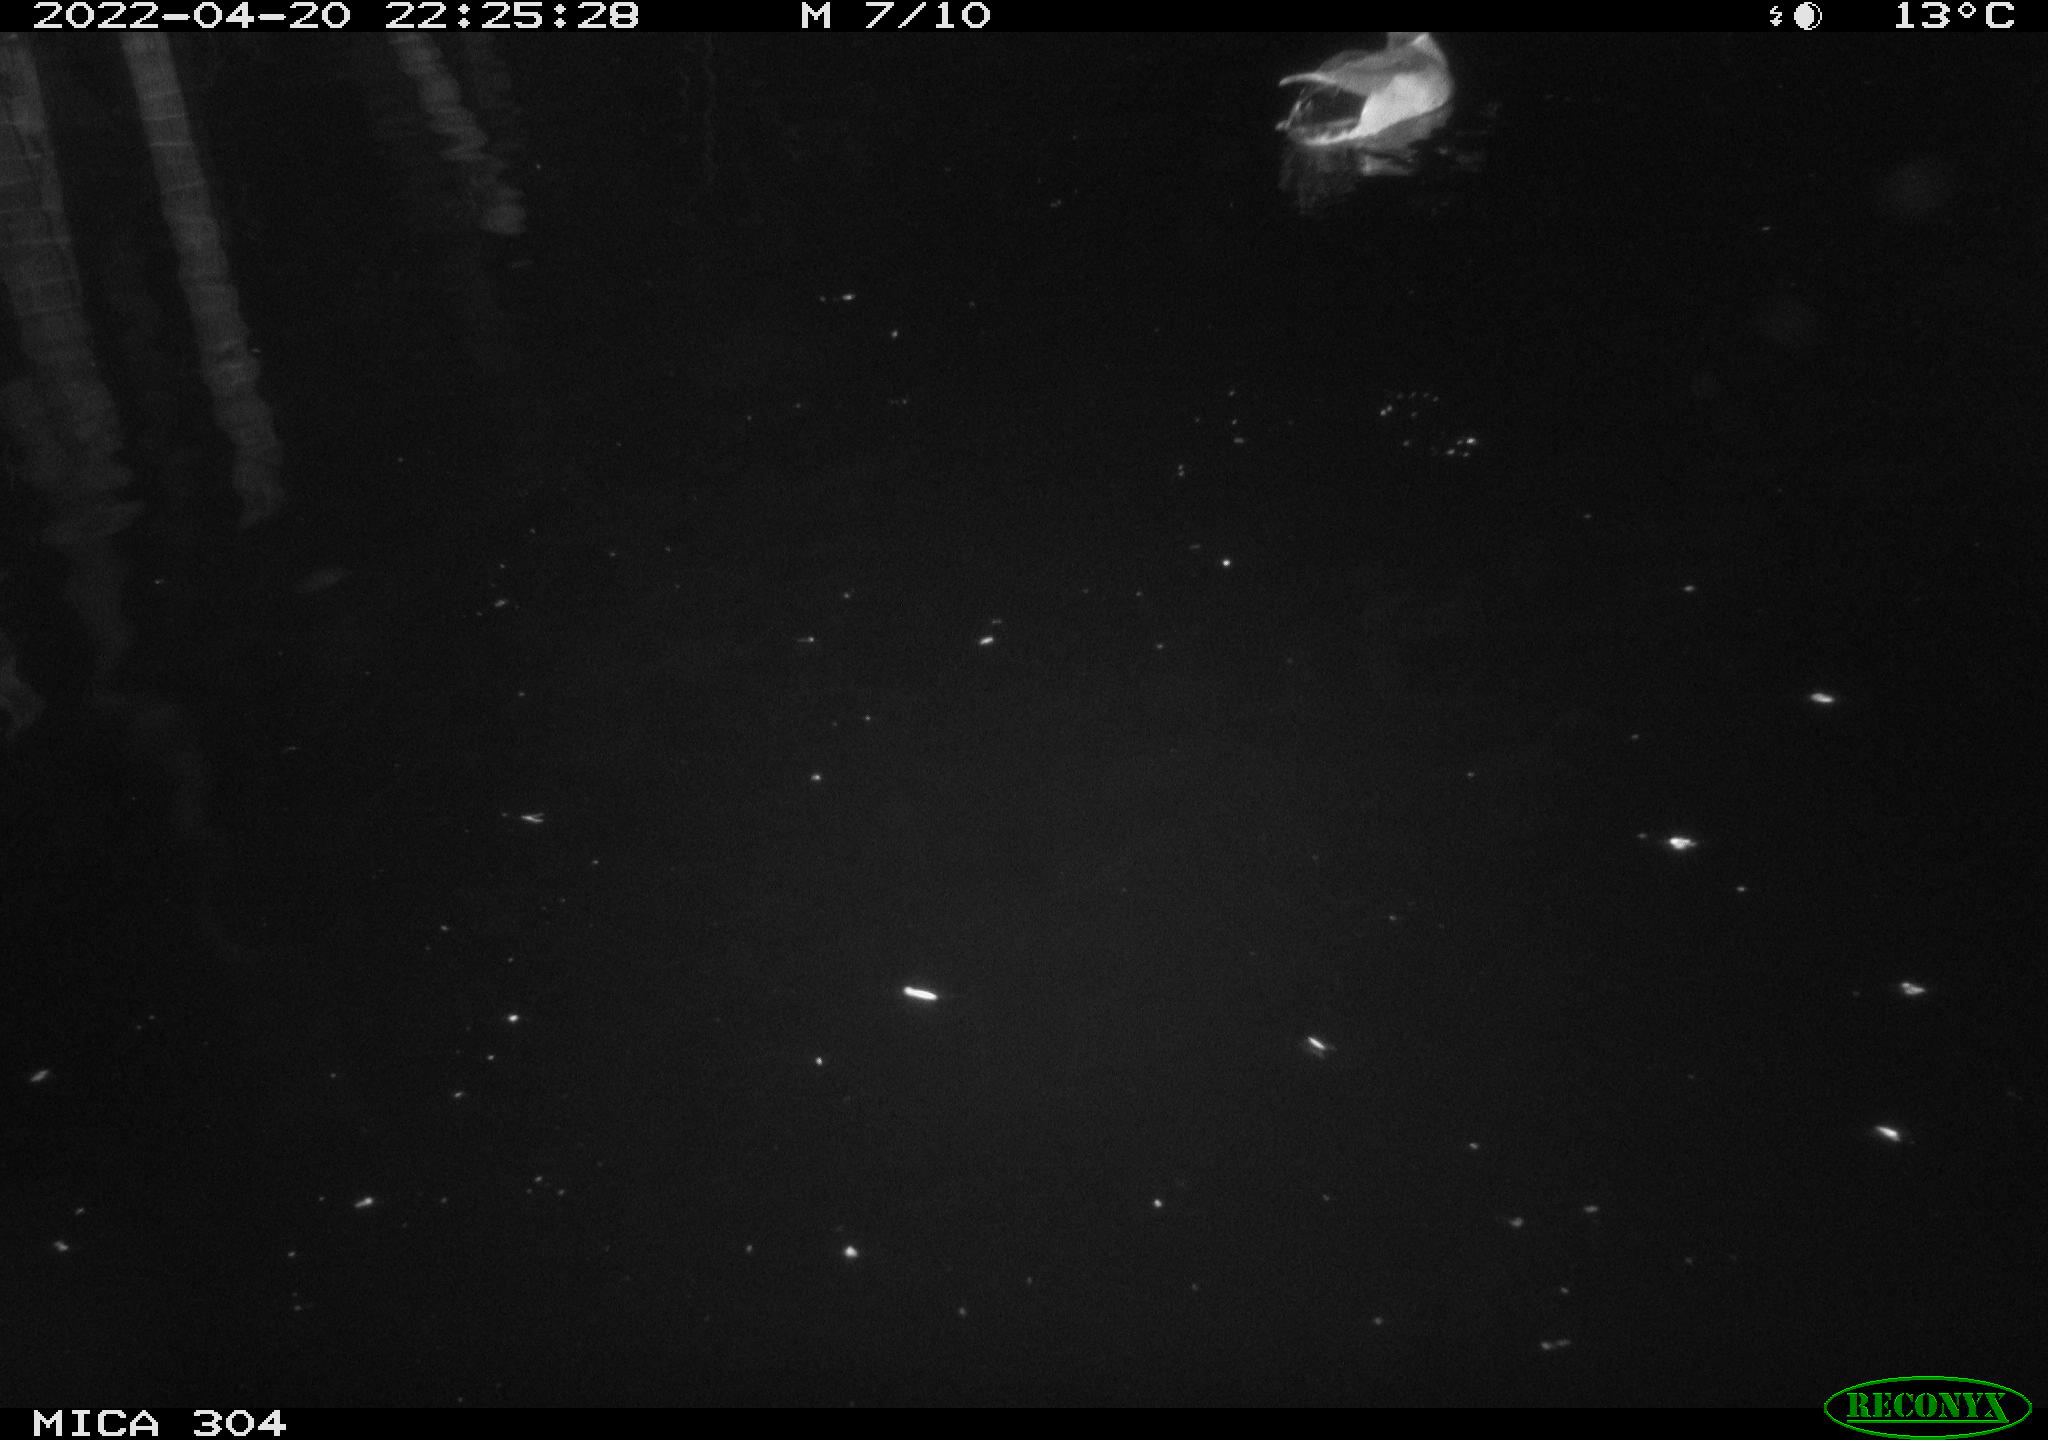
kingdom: Animalia
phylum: Chordata
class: Aves
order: Anseriformes
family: Anatidae
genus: Anas
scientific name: Anas platyrhynchos
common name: Mallard
